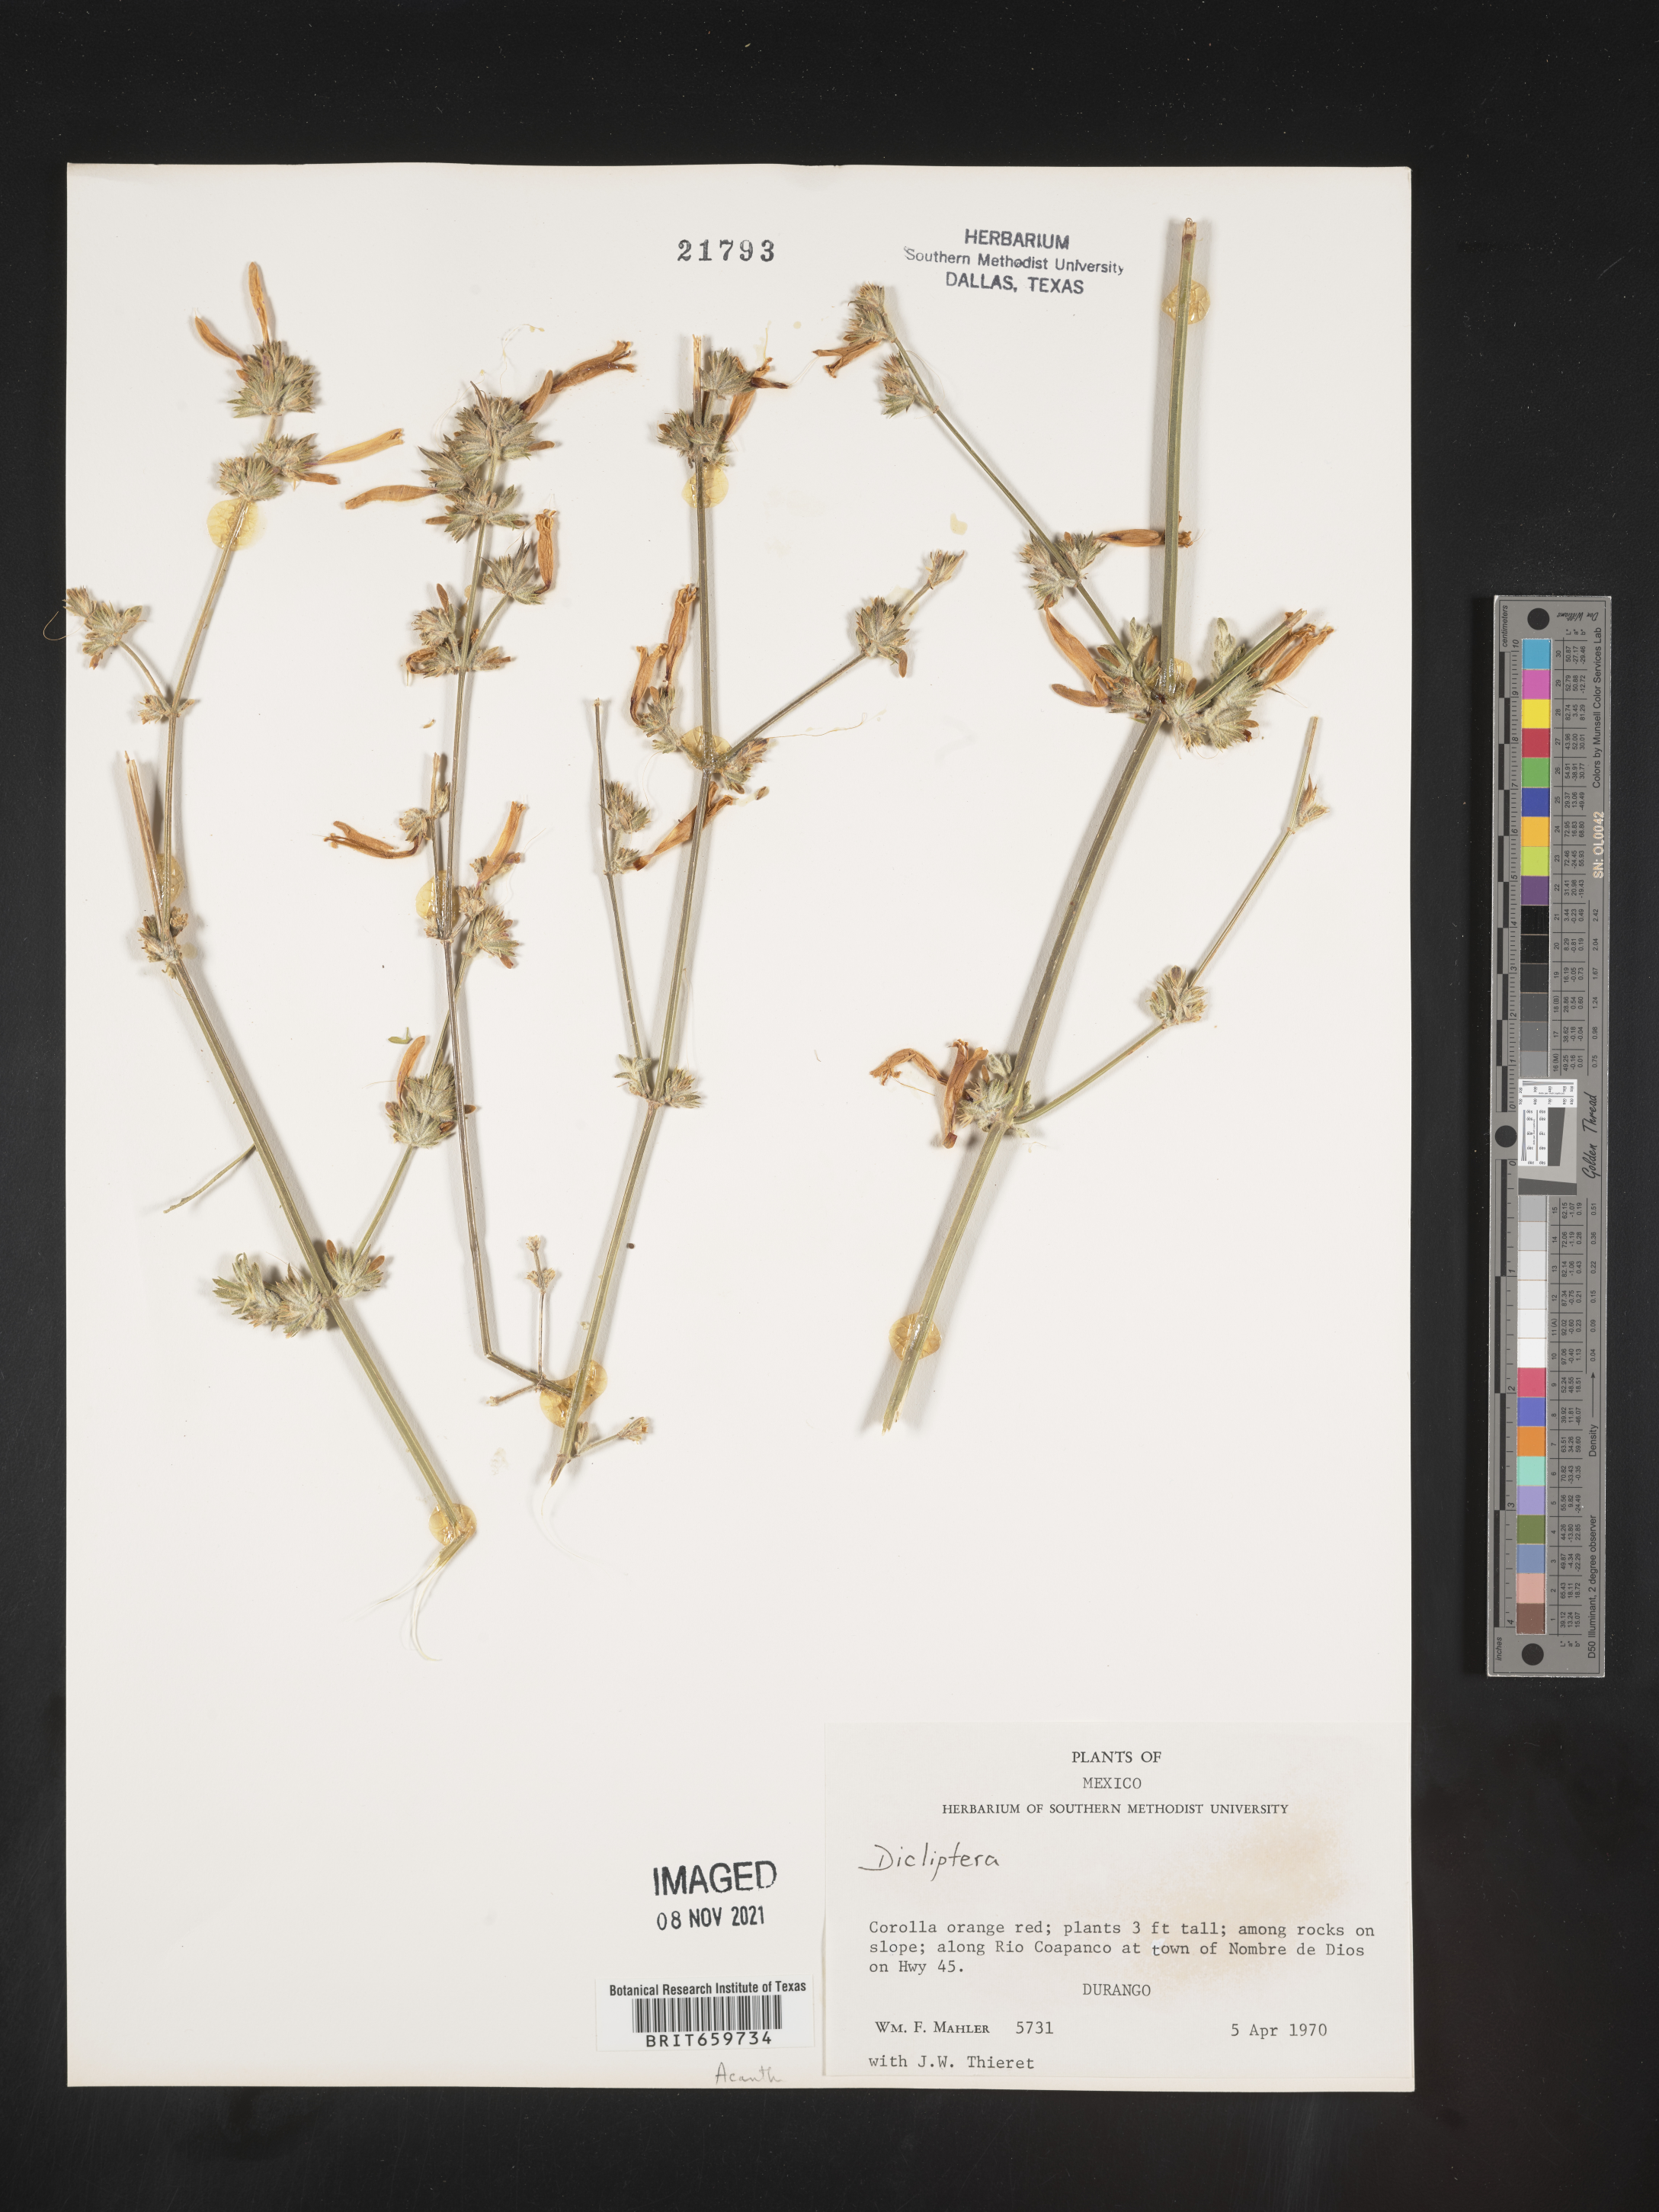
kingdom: Plantae
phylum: Tracheophyta
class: Magnoliopsida
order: Lamiales
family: Acanthaceae
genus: Dicliptera
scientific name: Dicliptera
